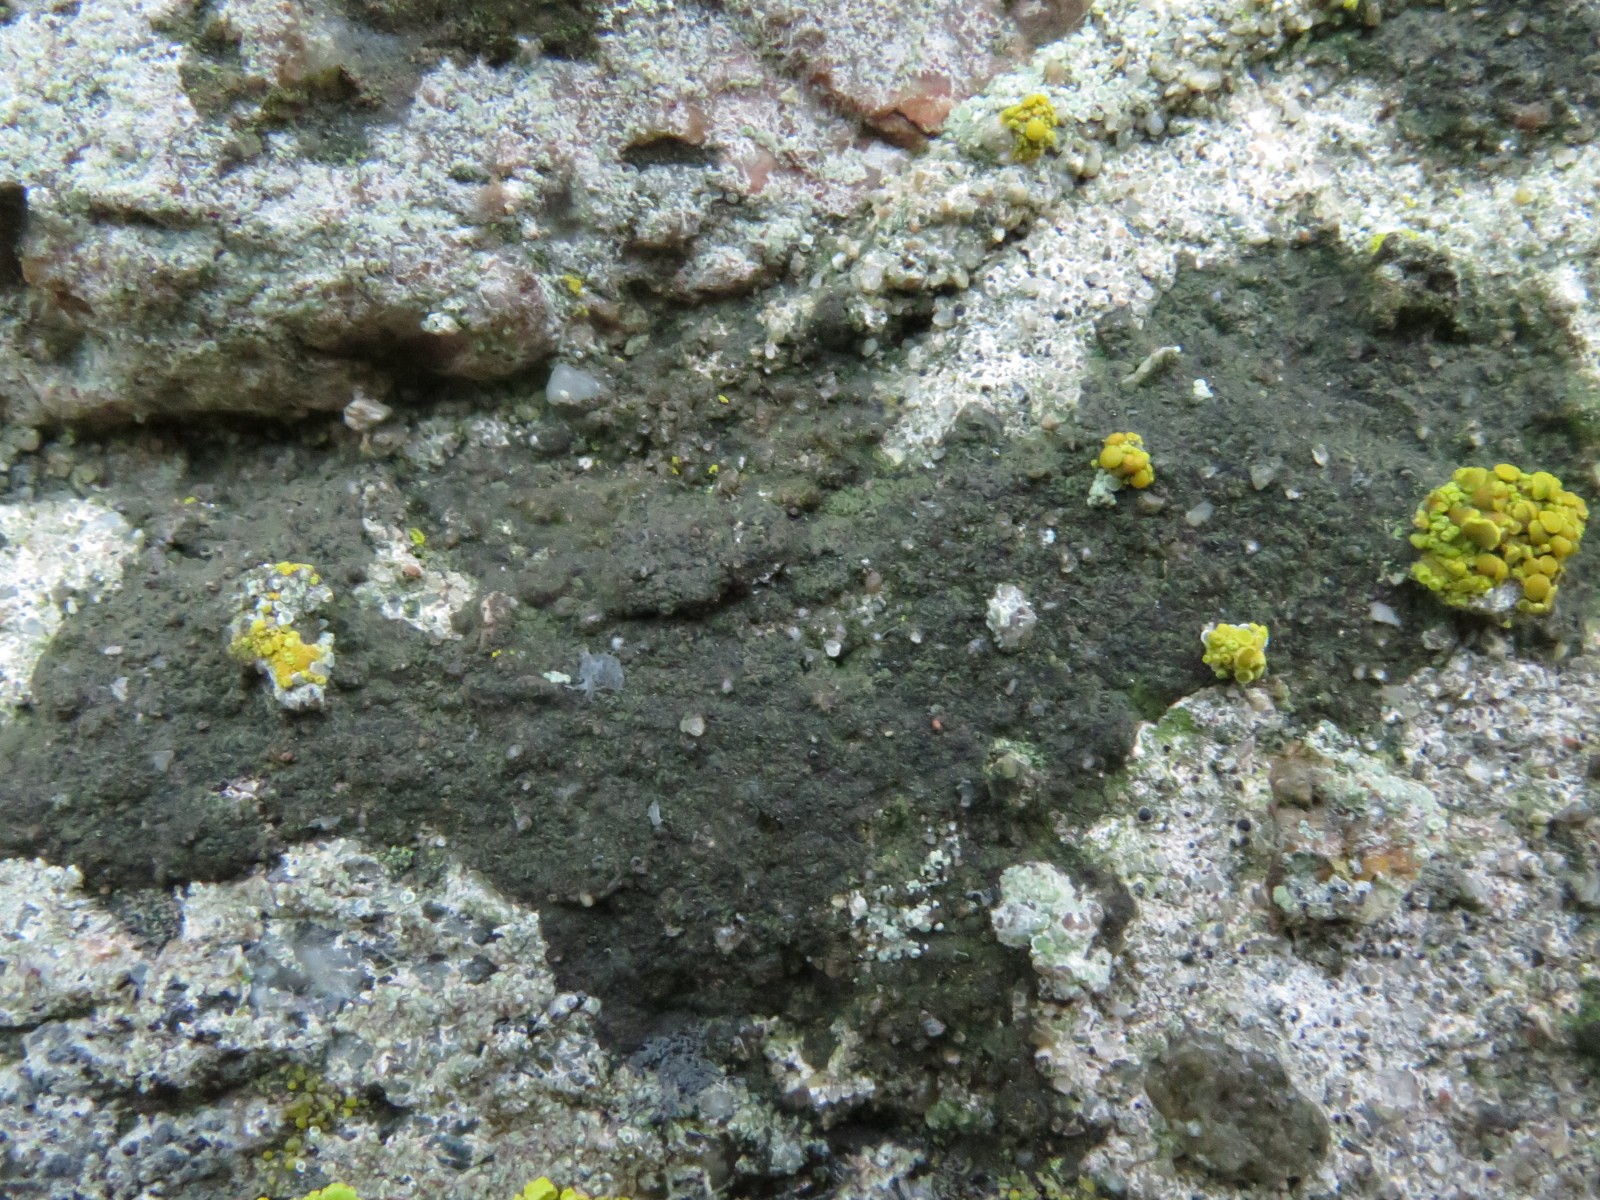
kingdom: Fungi
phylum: Ascomycota
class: Eurotiomycetes
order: Verrucariales
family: Verrucariaceae
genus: Verrucaria
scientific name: Verrucaria nigrescens
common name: sortbrun vortelav
